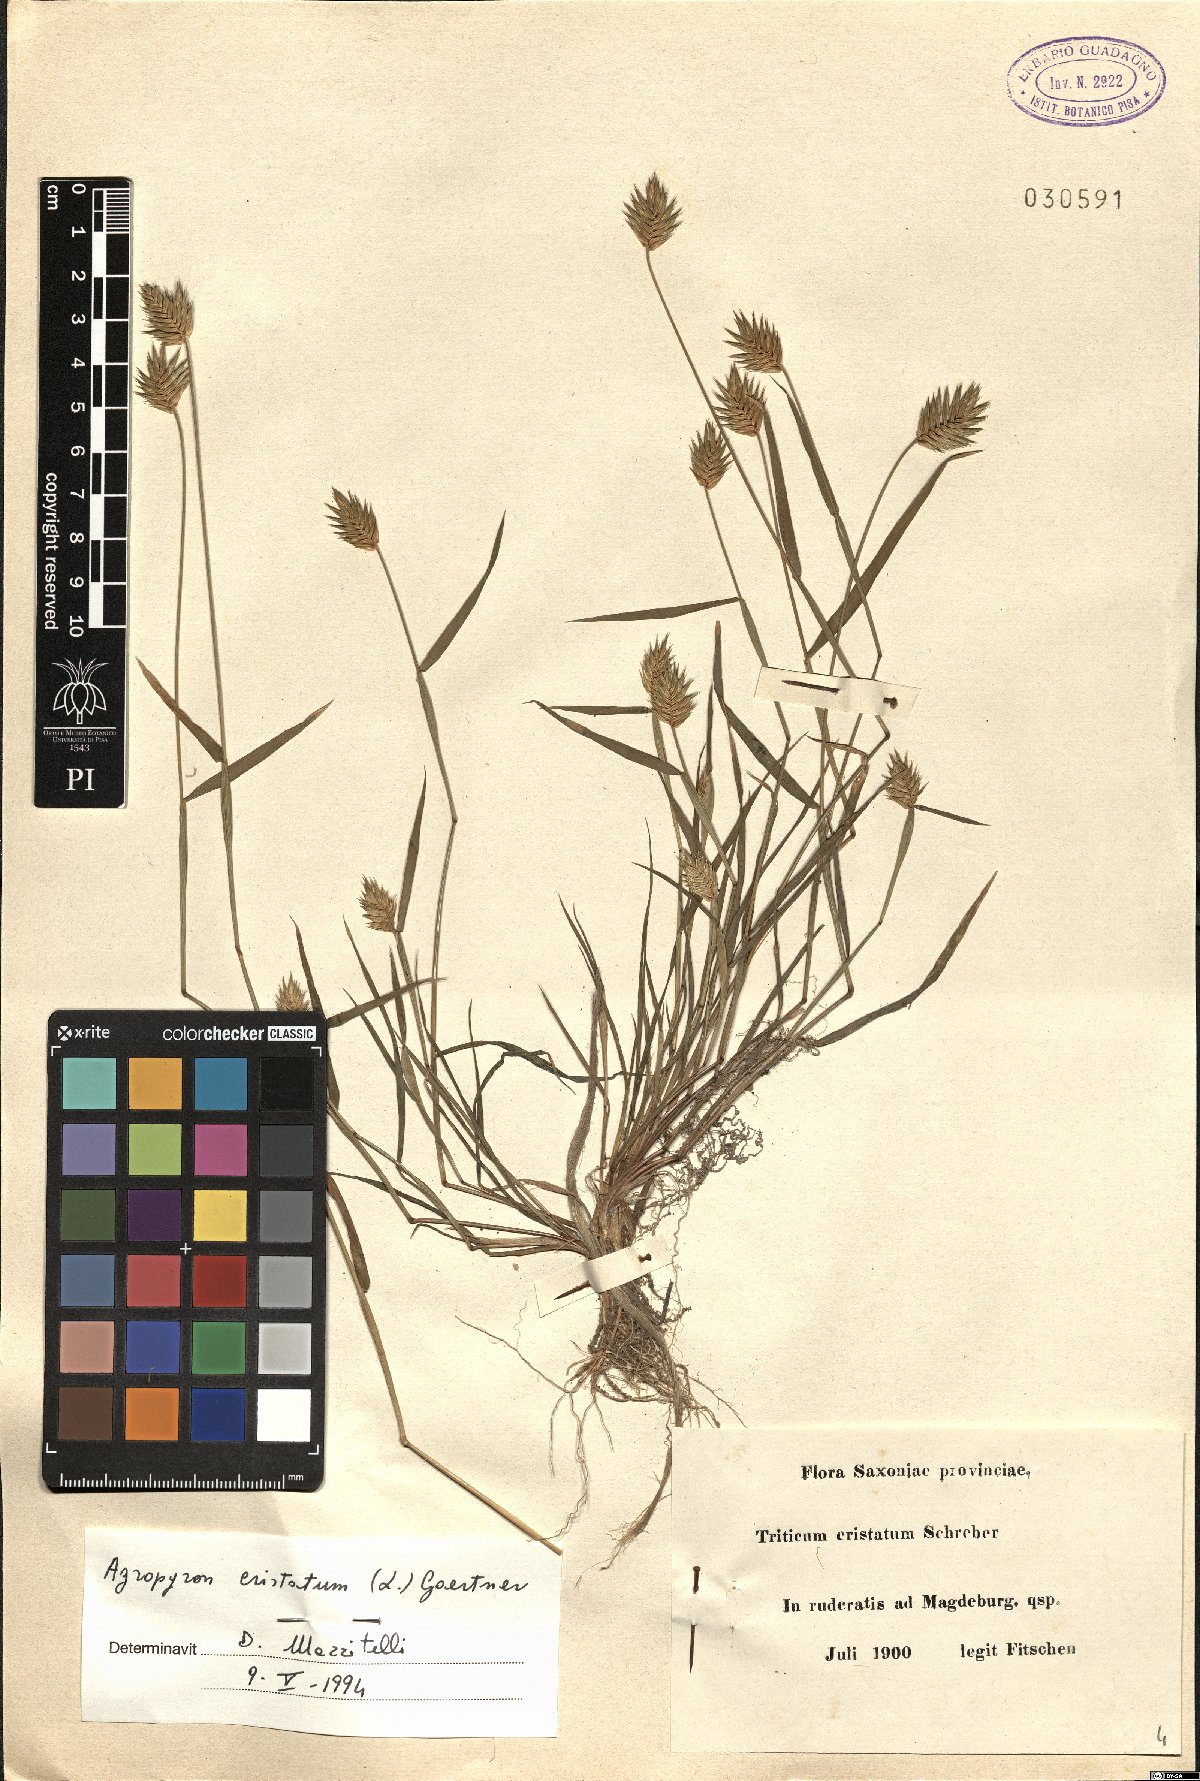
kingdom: Plantae
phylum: Tracheophyta
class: Liliopsida
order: Poales
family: Poaceae
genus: Agropyron
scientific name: Agropyron cristatum
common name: Crested wheatgrass
